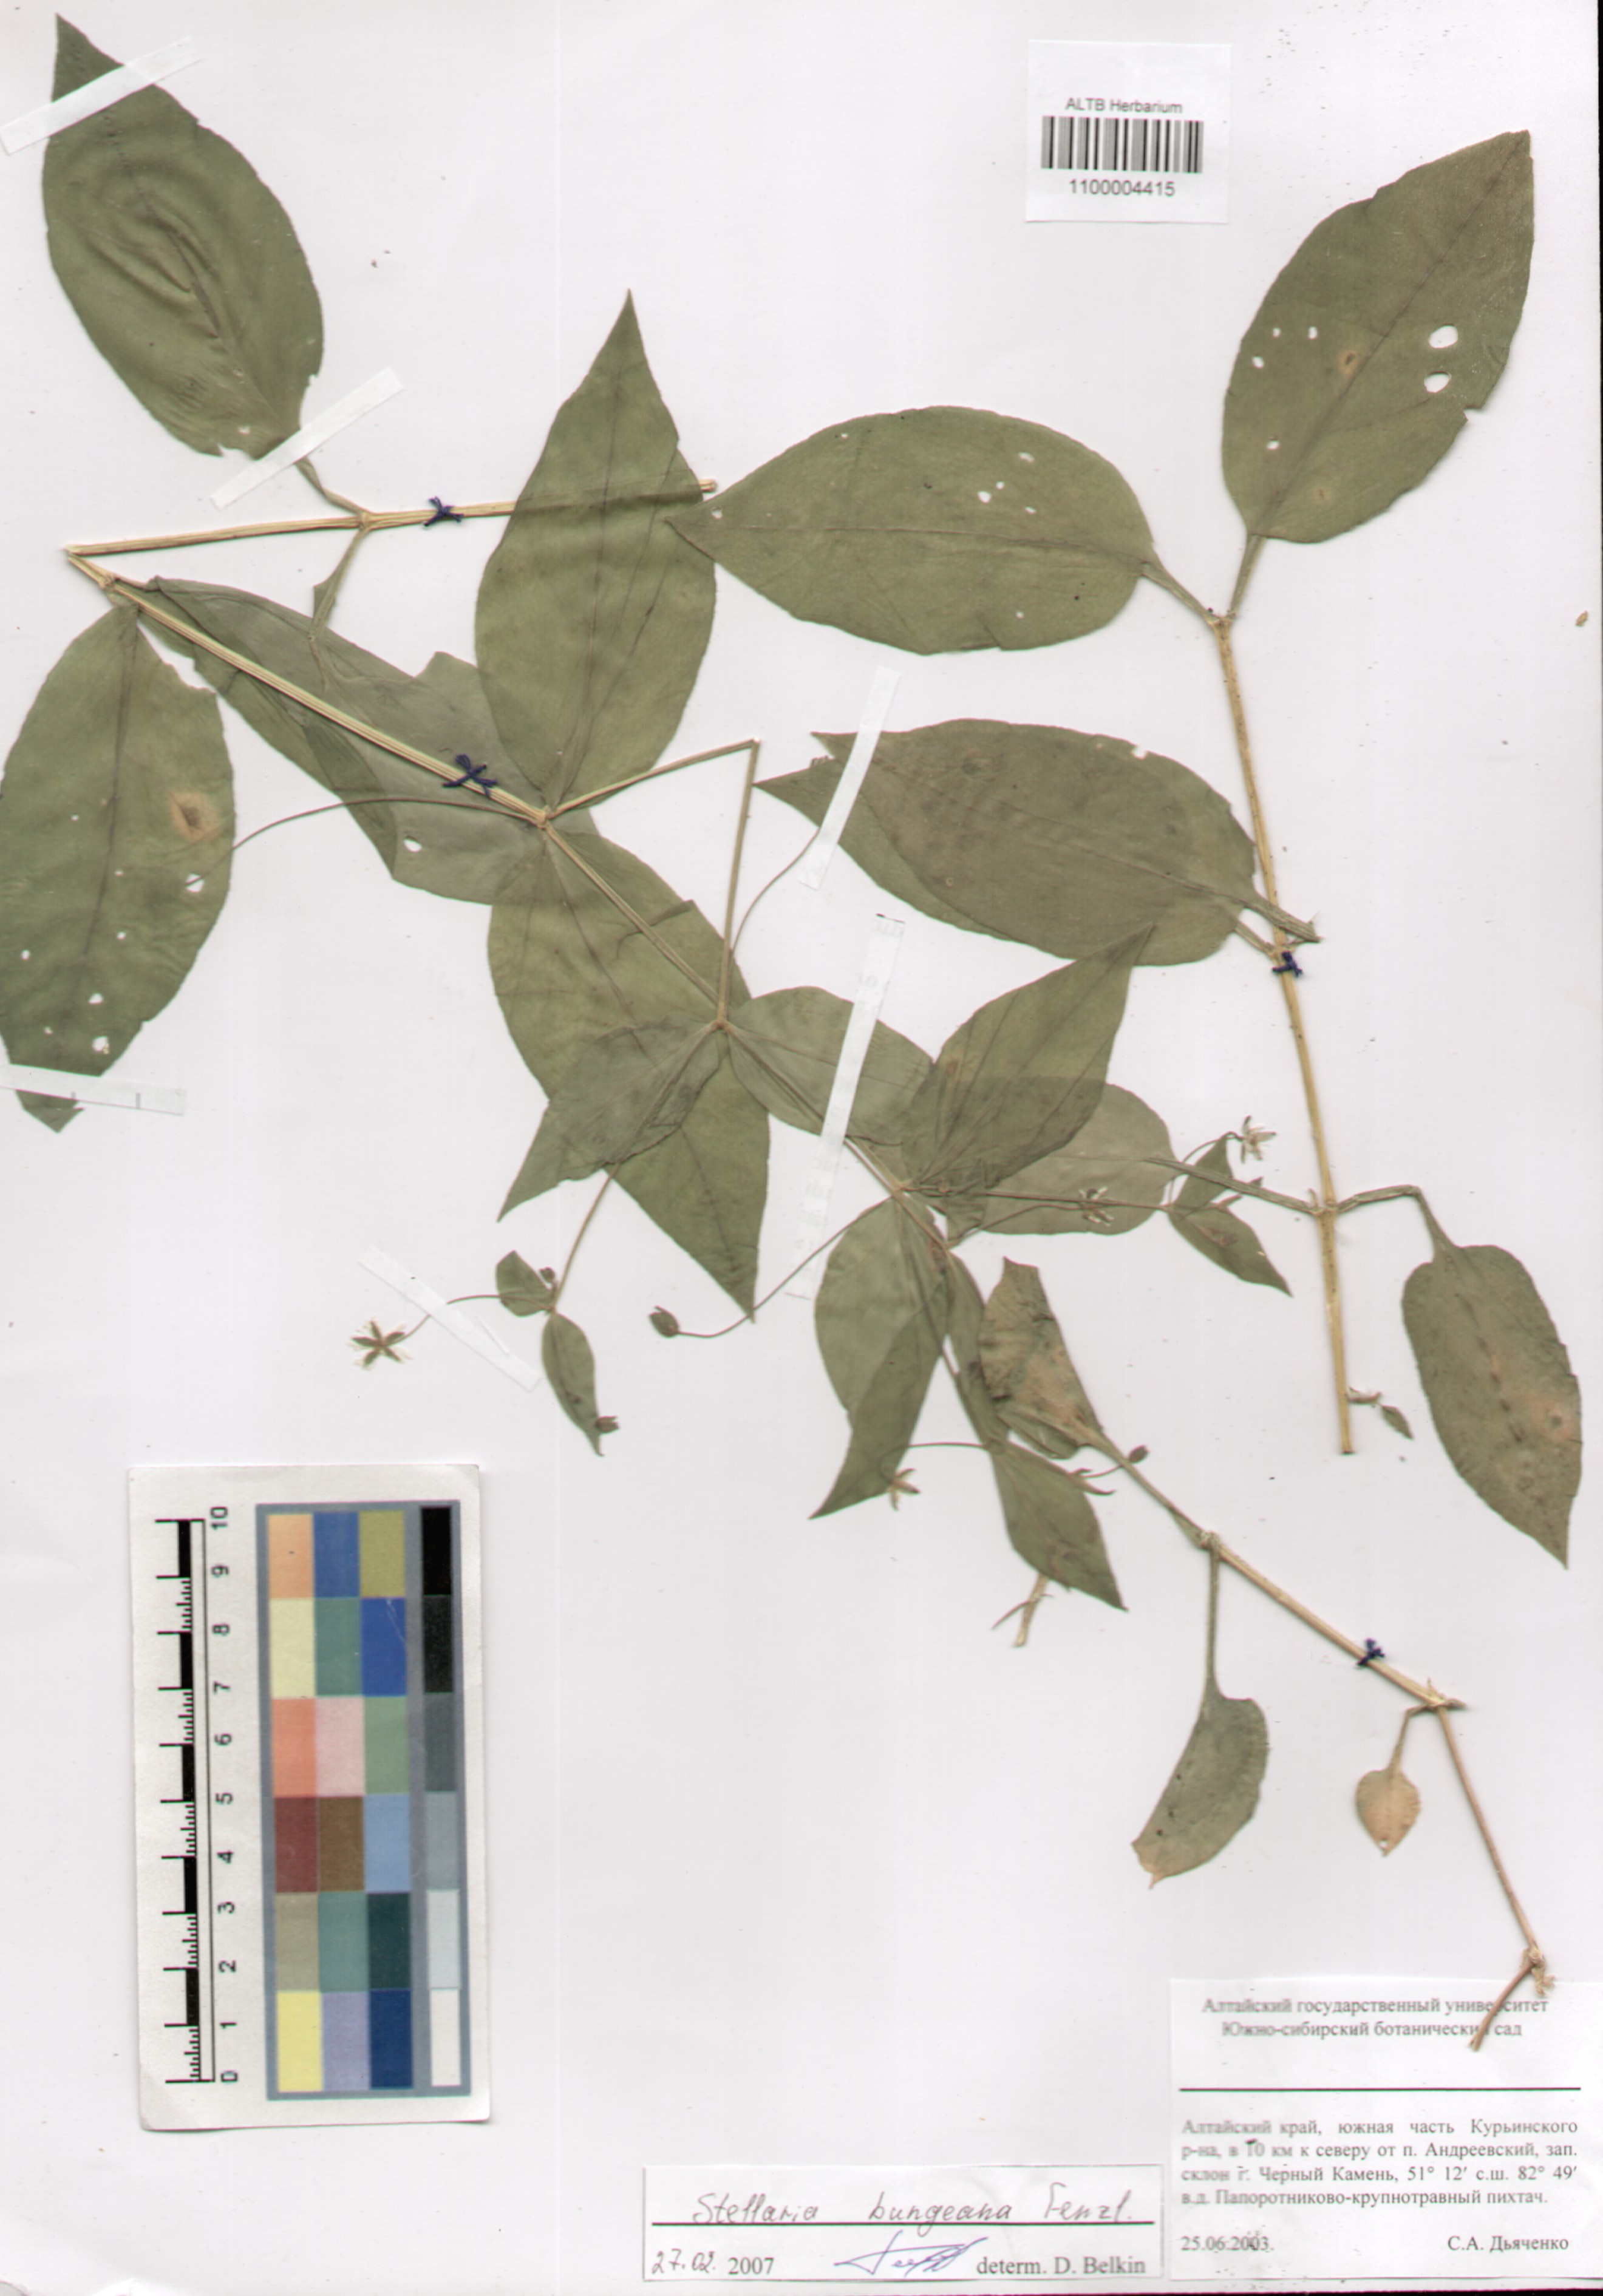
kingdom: Plantae
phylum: Tracheophyta
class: Magnoliopsida
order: Caryophyllales
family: Caryophyllaceae
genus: Stellaria
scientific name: Stellaria bungeana
